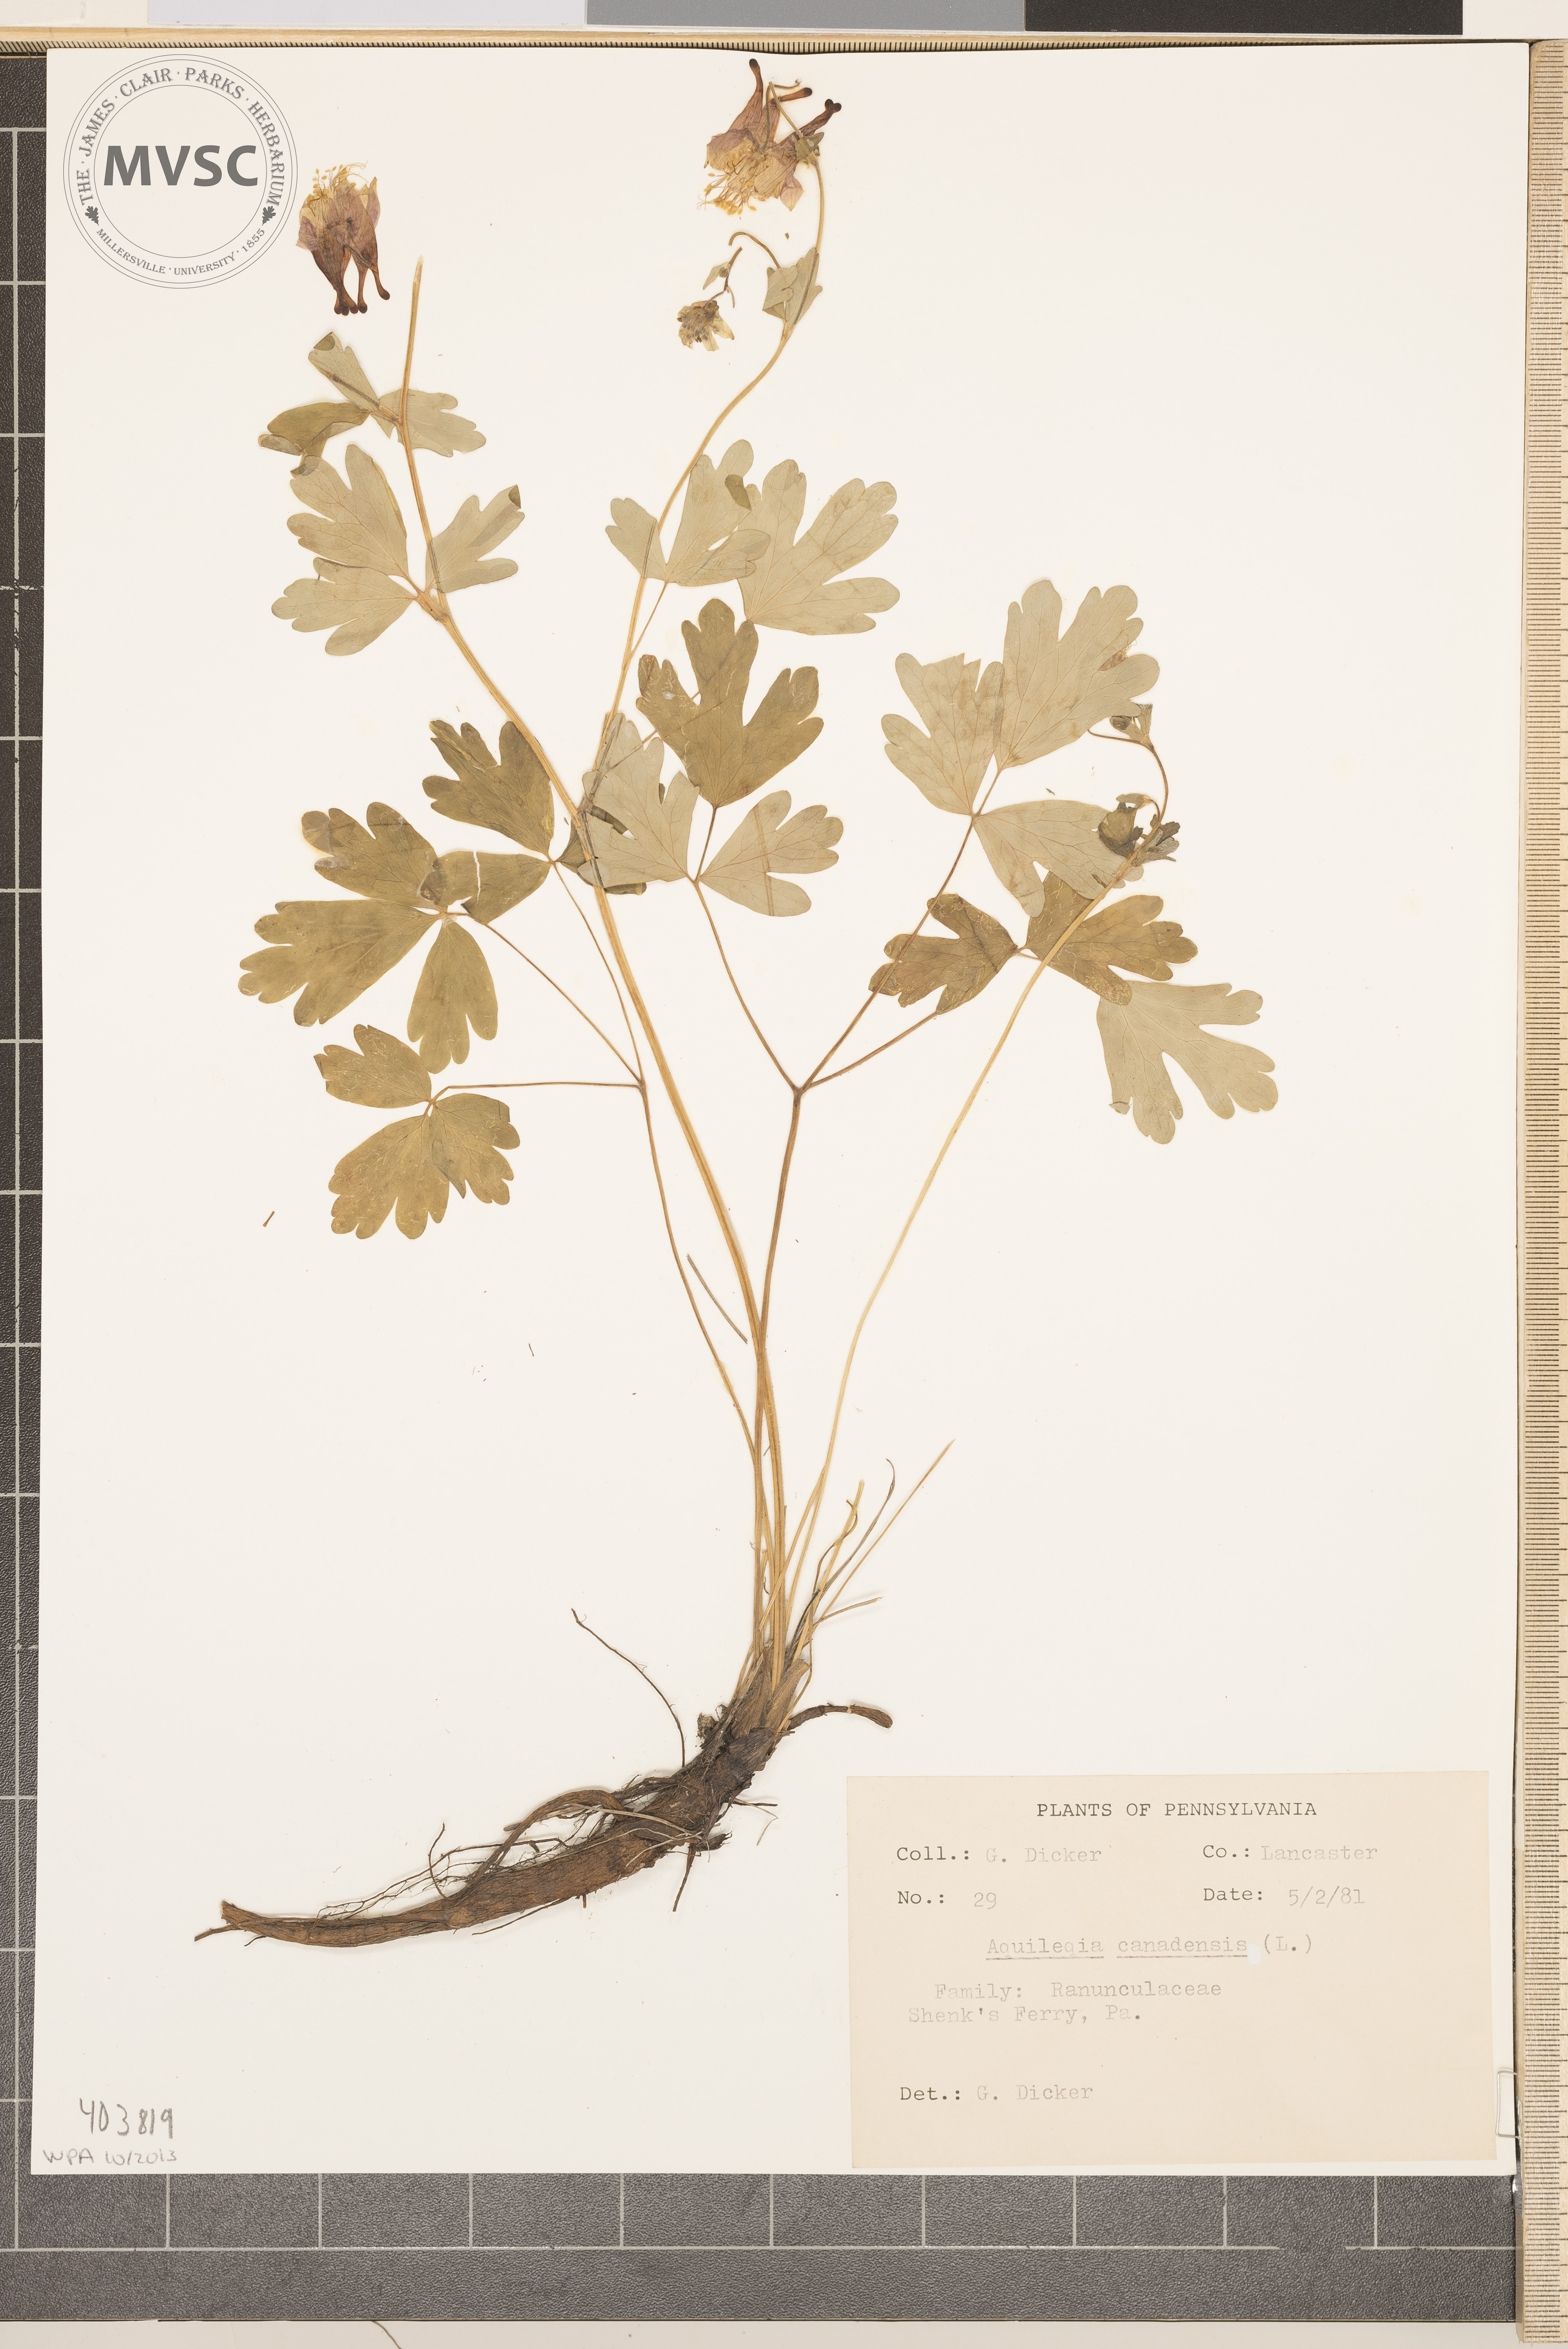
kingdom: Plantae
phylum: Tracheophyta
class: Magnoliopsida
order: Ranunculales
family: Ranunculaceae
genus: Aquilegia
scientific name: Aquilegia canadensis
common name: American columbine
